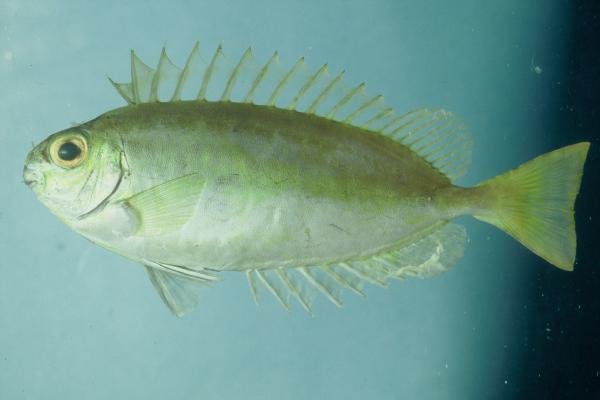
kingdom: Animalia
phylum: Chordata
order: Perciformes
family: Siganidae
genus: Siganus
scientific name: Siganus luridus
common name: Dusky spinefoot
